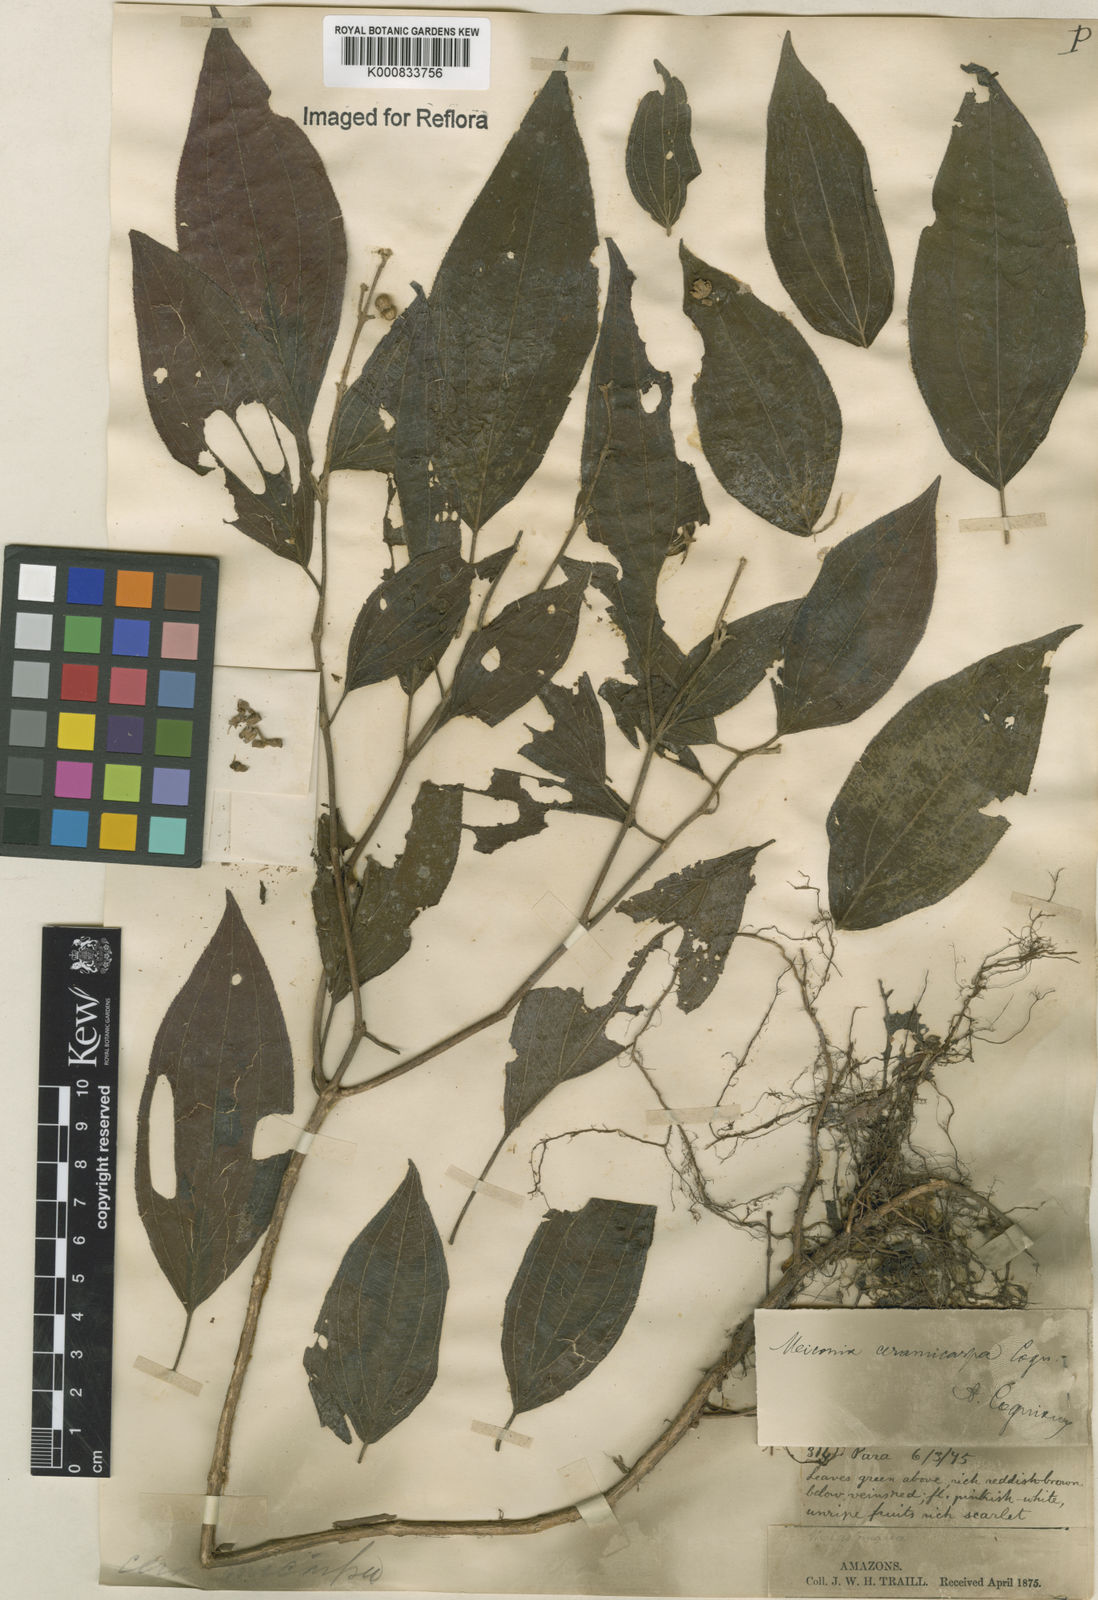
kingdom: Plantae
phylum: Tracheophyta
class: Magnoliopsida
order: Myrtales
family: Melastomataceae
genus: Miconia
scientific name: Miconia ceramicarpa
